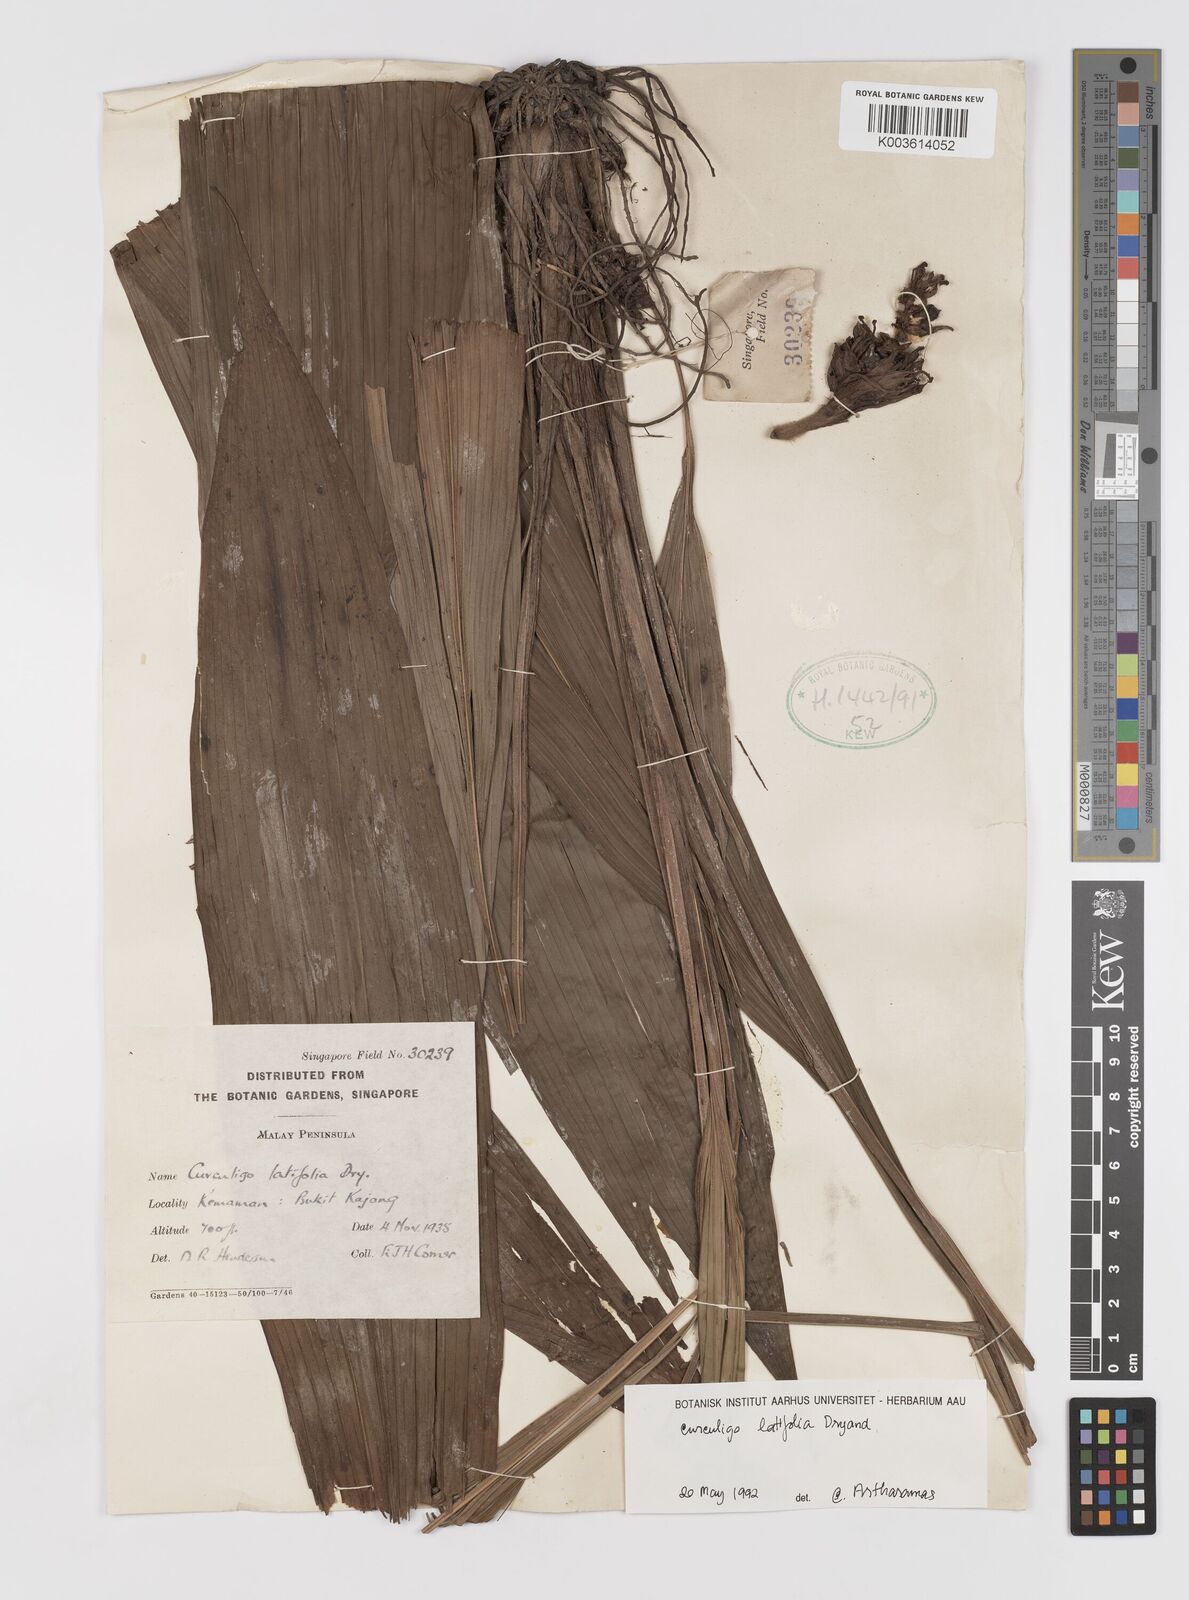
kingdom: Plantae
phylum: Tracheophyta
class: Liliopsida
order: Asparagales
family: Hypoxidaceae
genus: Curculigo
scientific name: Curculigo latifolia
